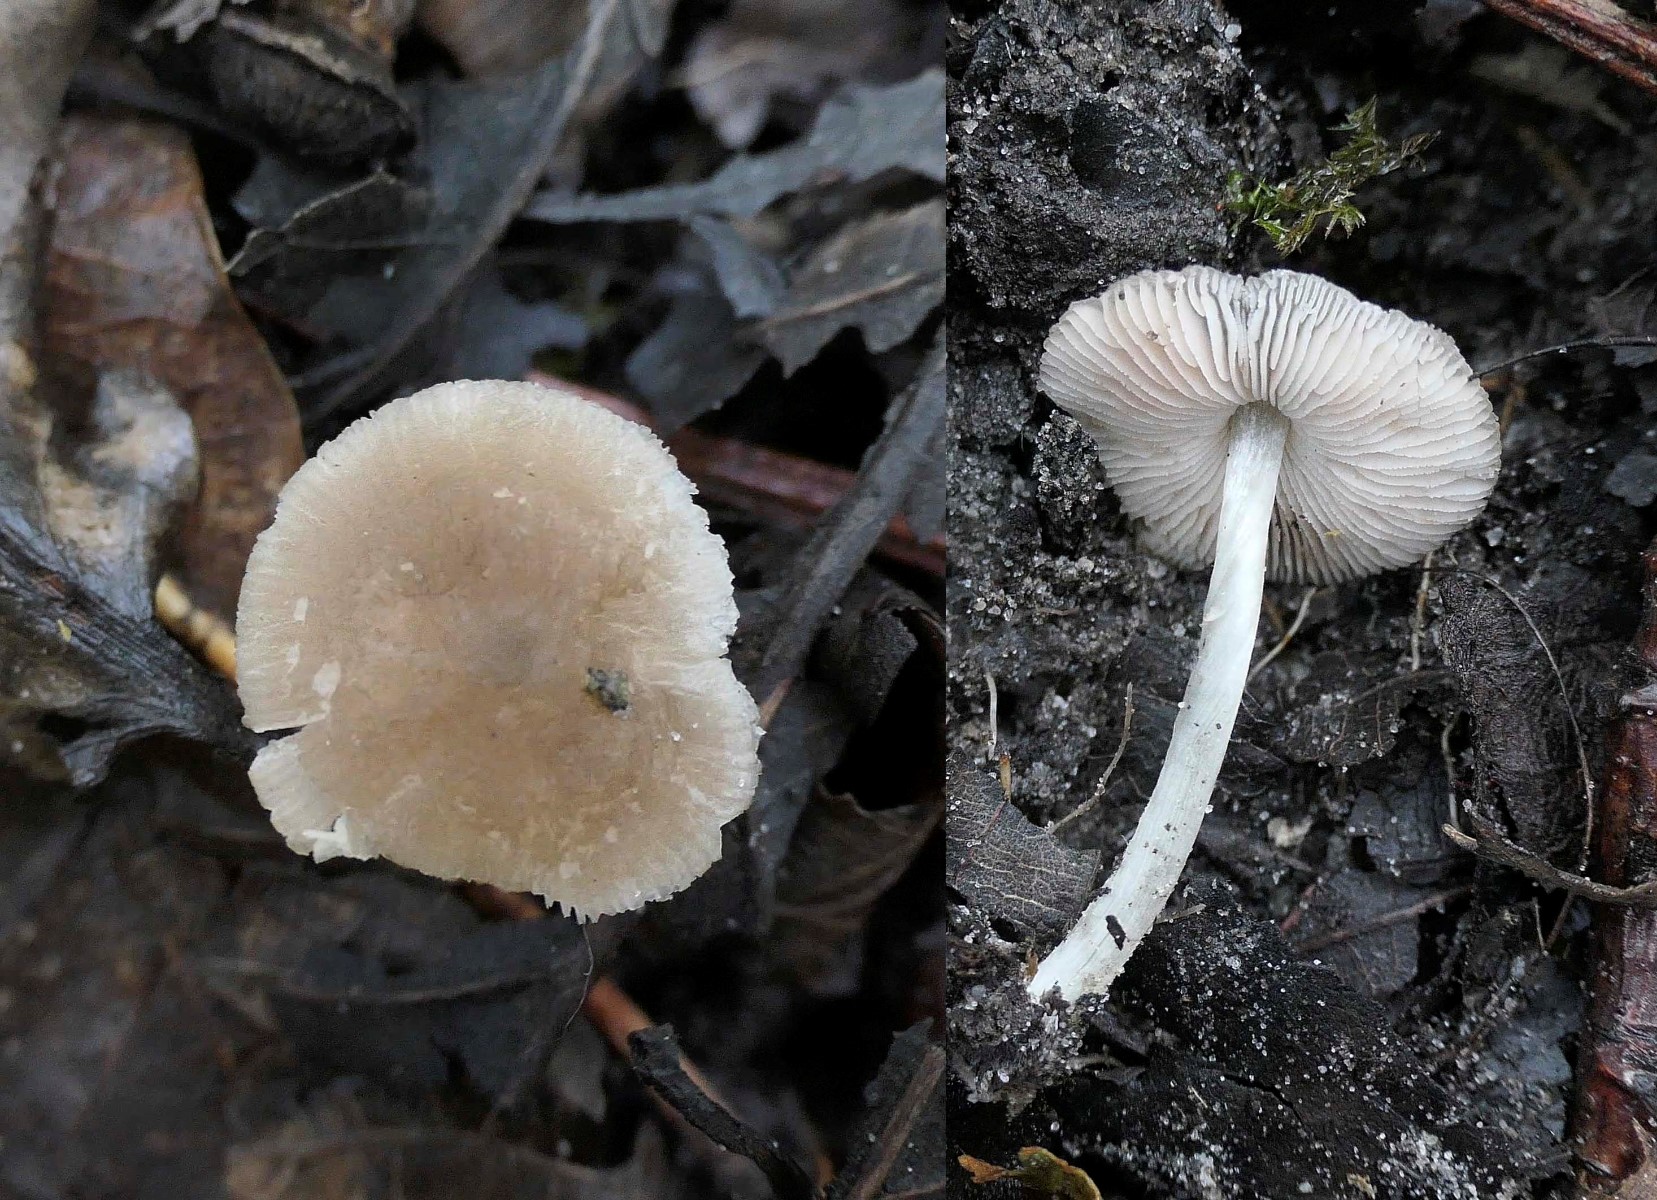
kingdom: Fungi
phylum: Basidiomycota
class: Agaricomycetes
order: Agaricales
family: Pluteaceae
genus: Pluteus
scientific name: Pluteus
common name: pudret skærmhat
